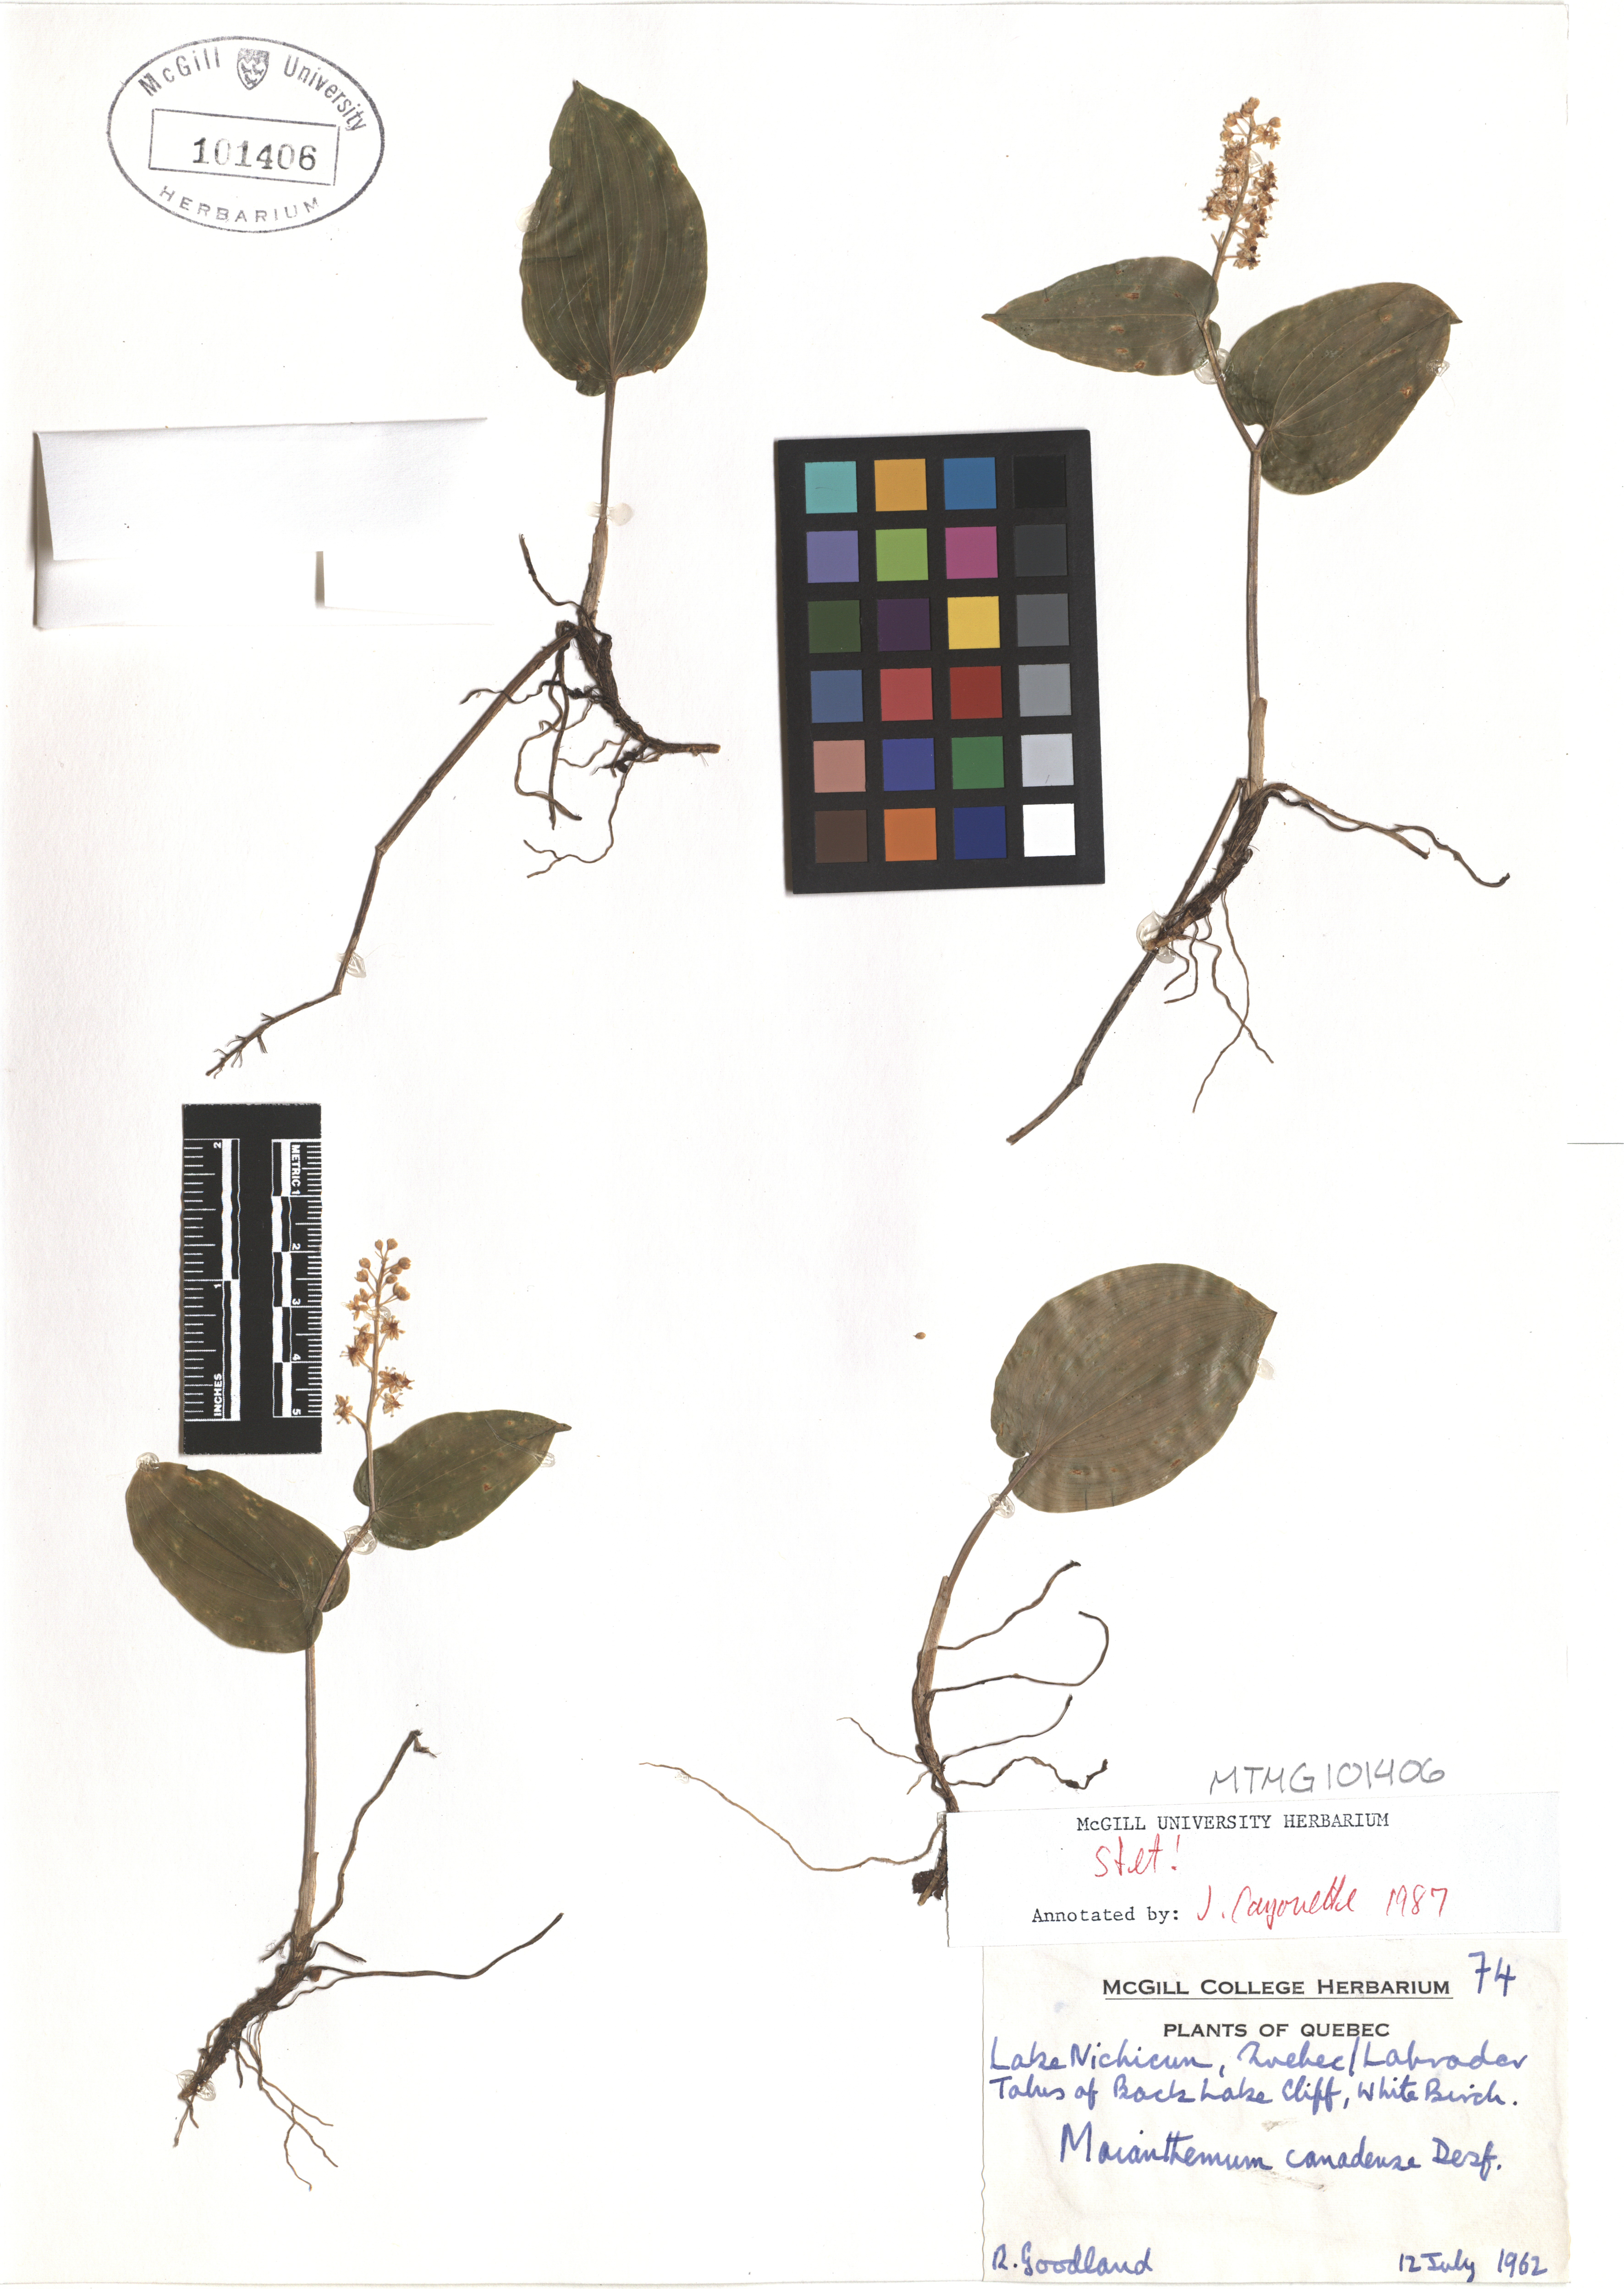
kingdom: Plantae
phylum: Tracheophyta
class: Liliopsida
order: Asparagales
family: Asparagaceae
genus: Maianthemum
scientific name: Maianthemum canadense
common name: False lily-of-the-valley
